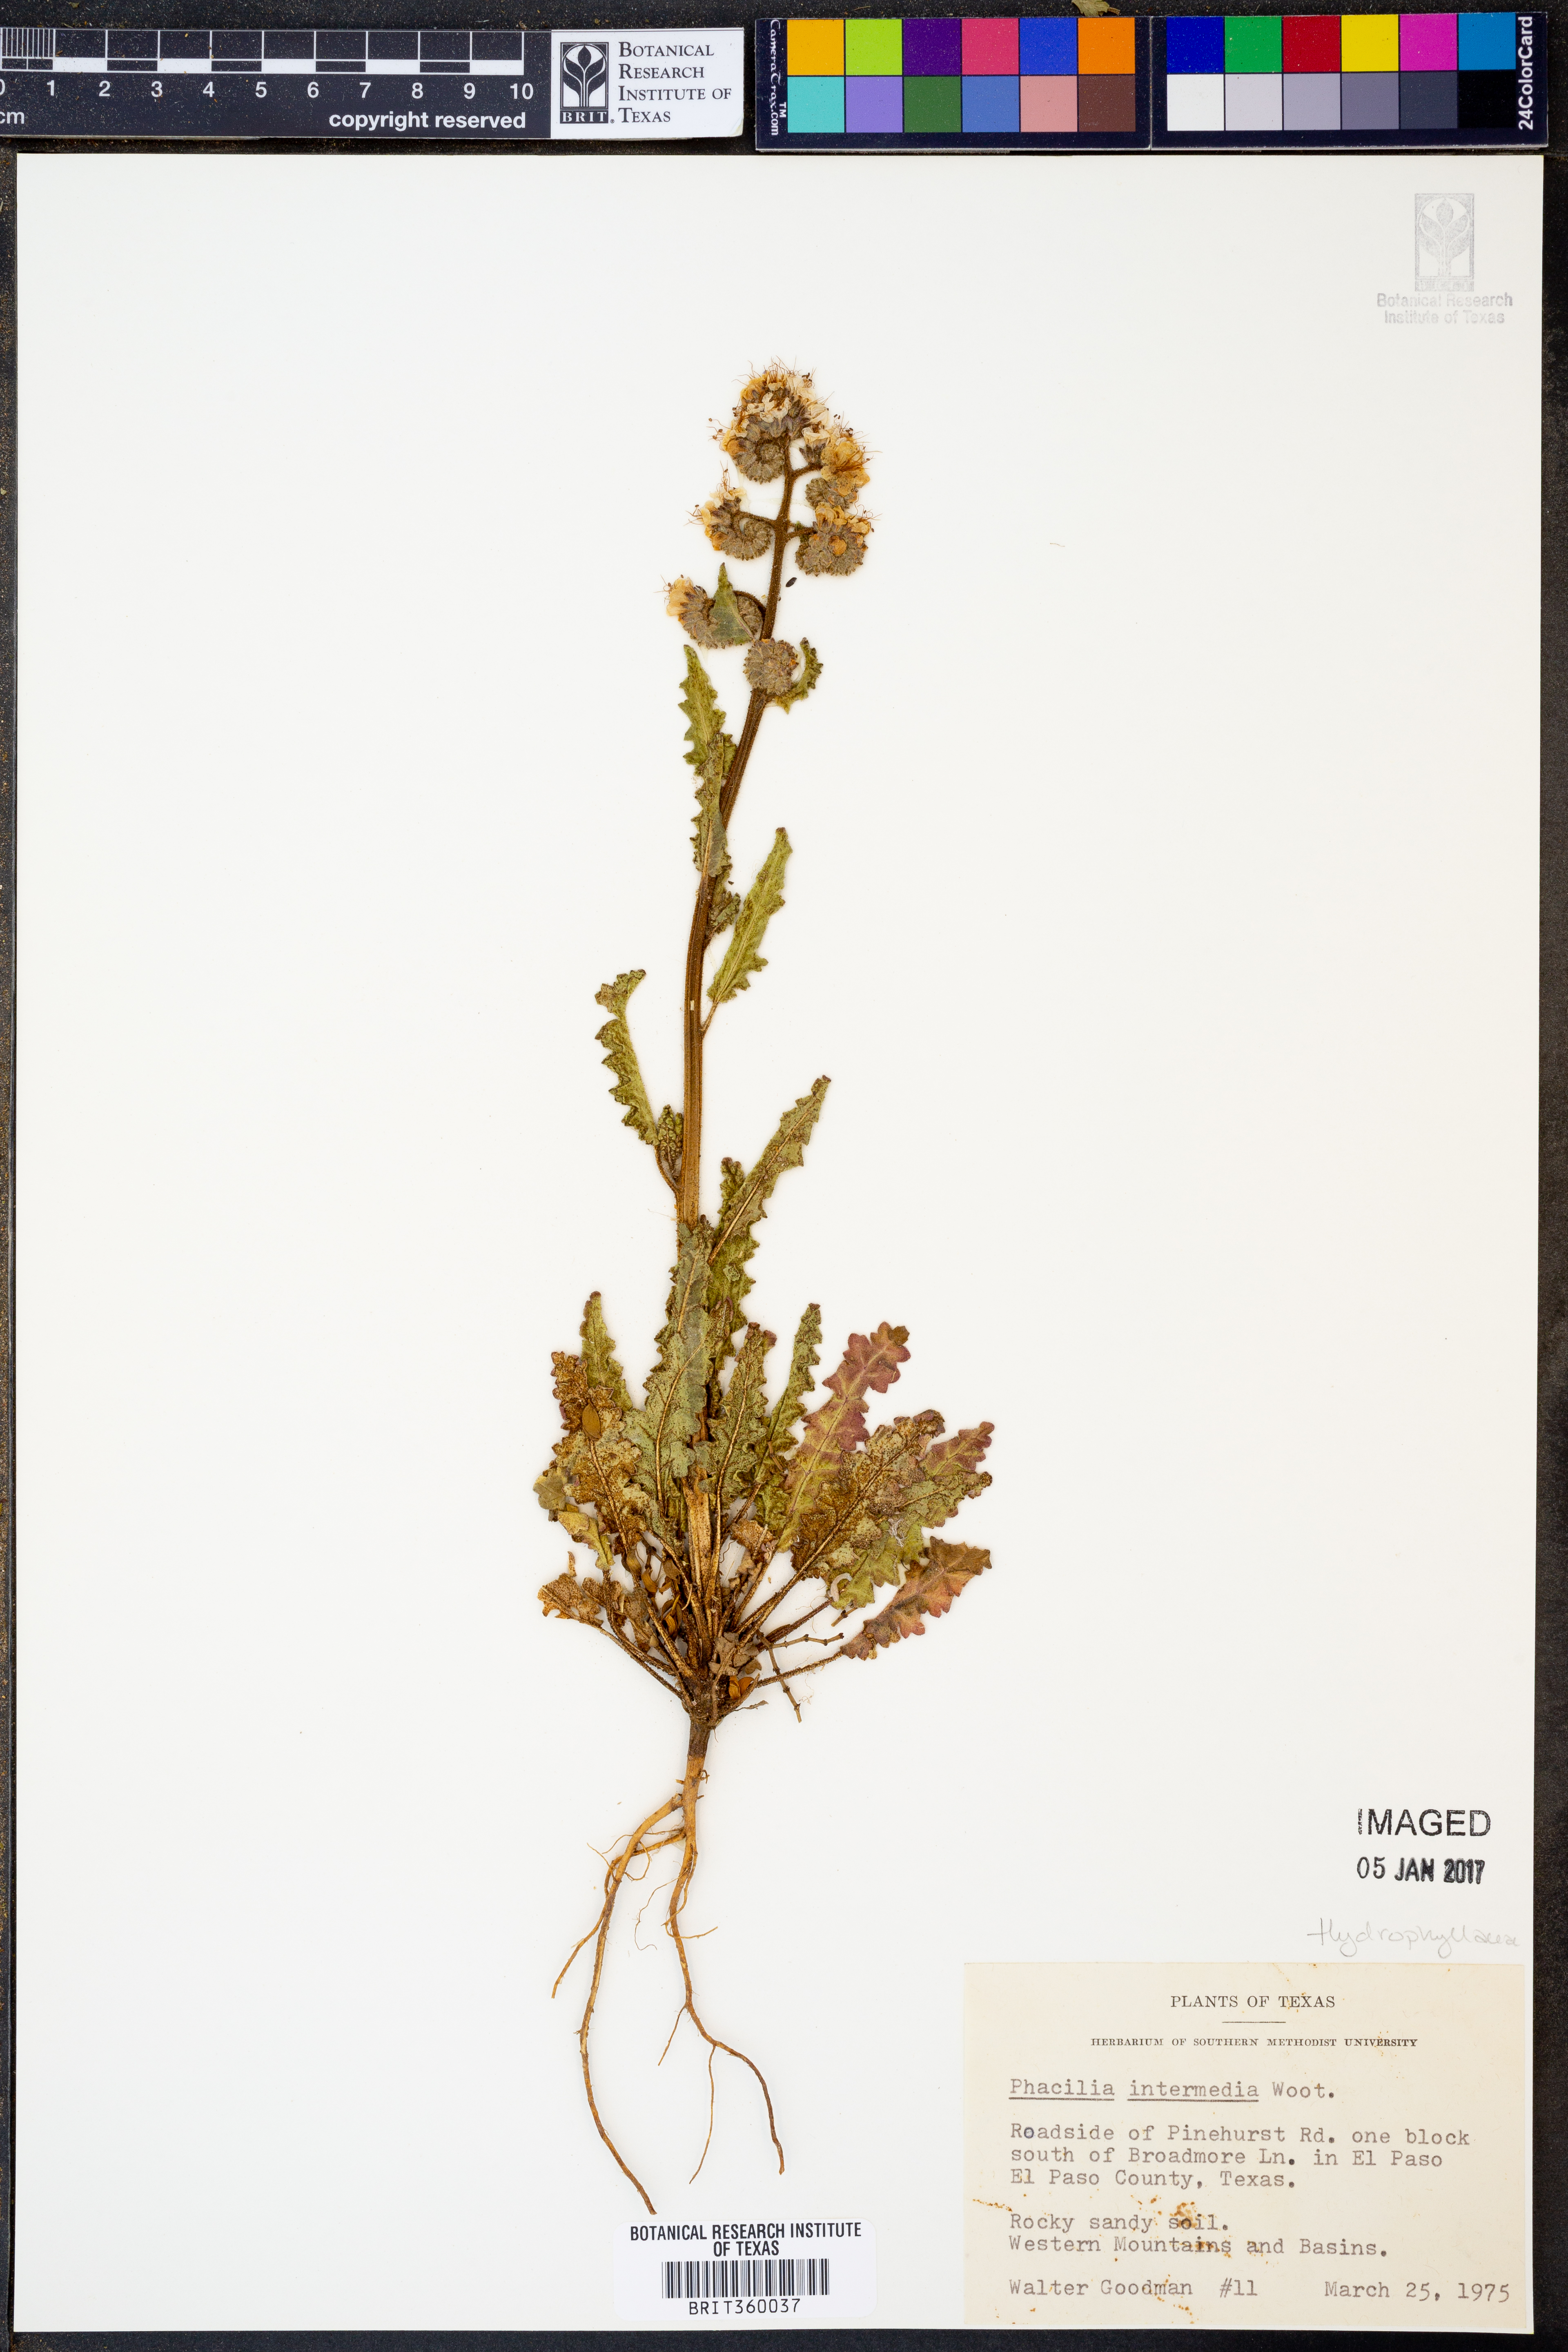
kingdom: Plantae
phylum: Tracheophyta
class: Magnoliopsida
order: Boraginales
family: Hydrophyllaceae
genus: Phacelia
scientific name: Phacelia coerulea
